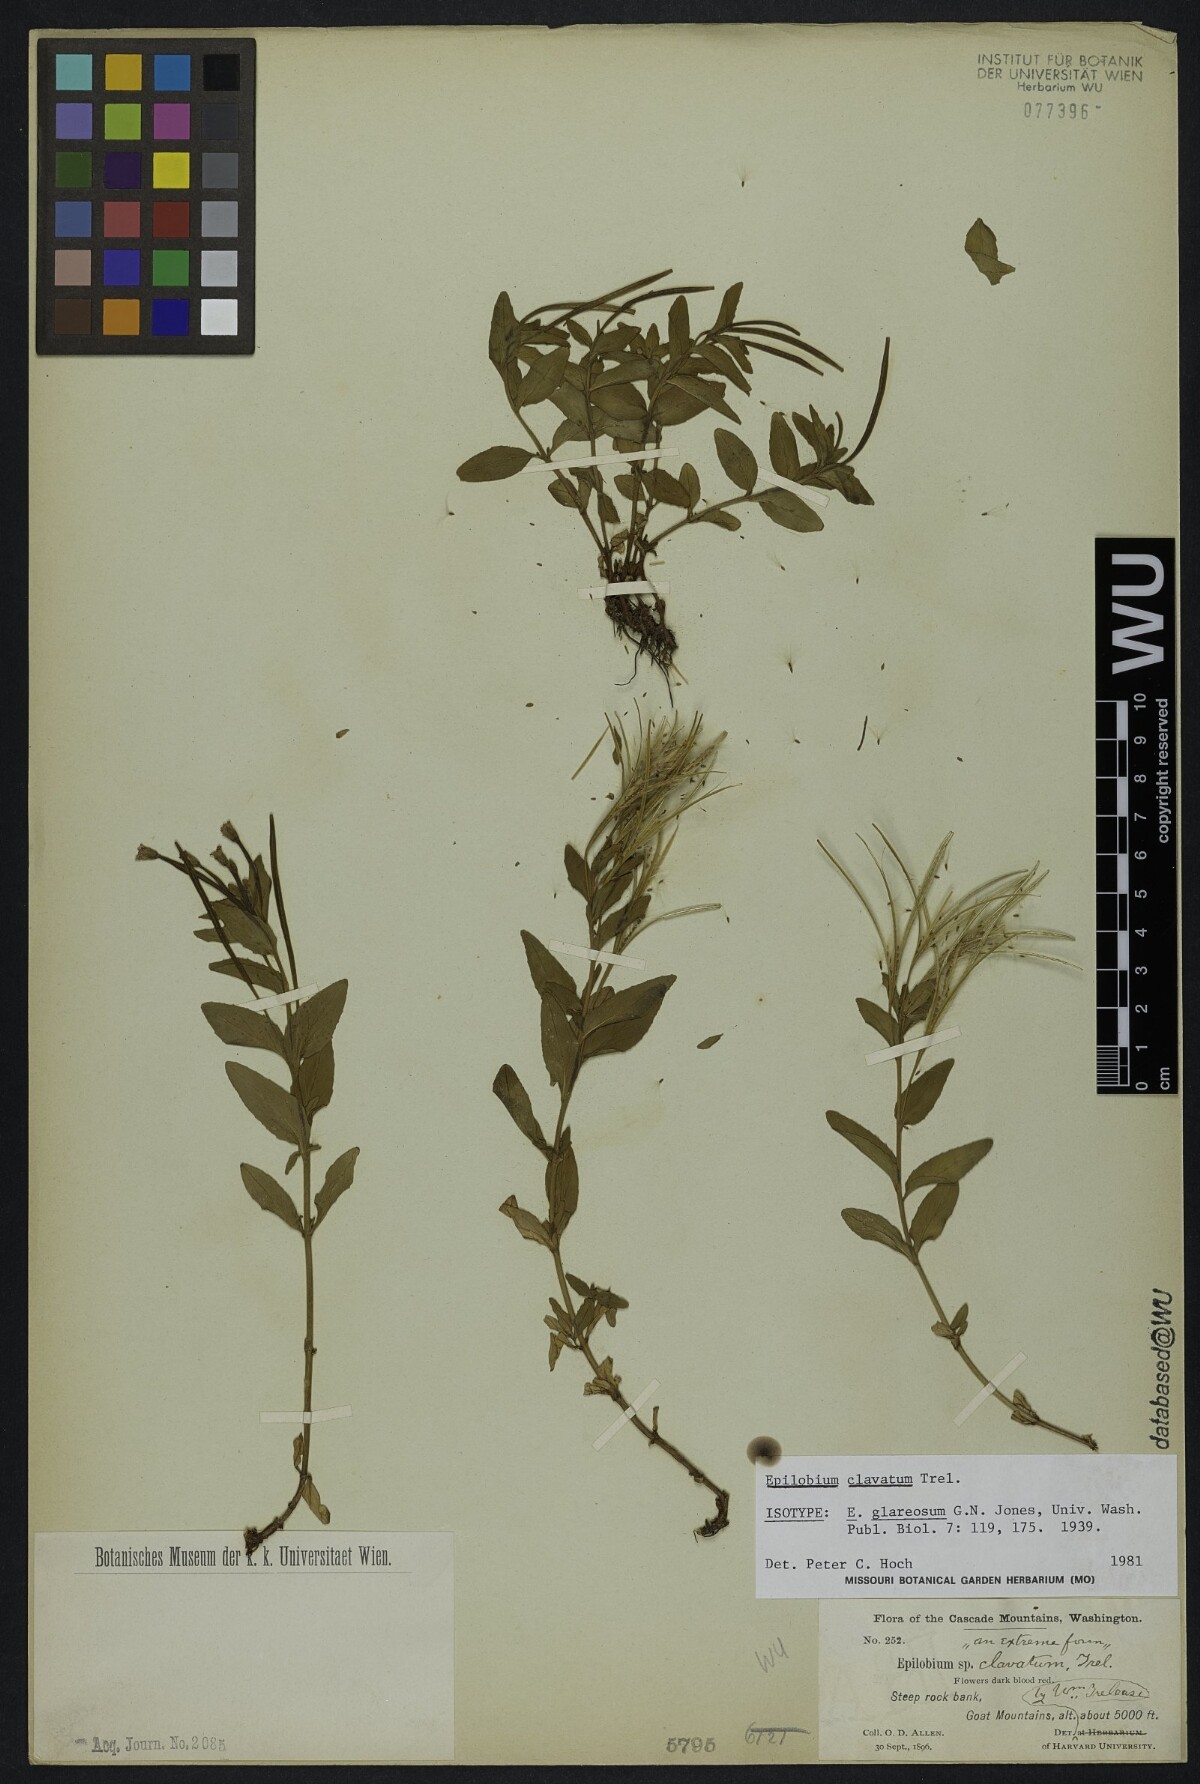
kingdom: Plantae
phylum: Tracheophyta
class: Magnoliopsida
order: Myrtales
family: Onagraceae
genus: Epilobium
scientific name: Epilobium smithii
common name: Smith's willowherb
